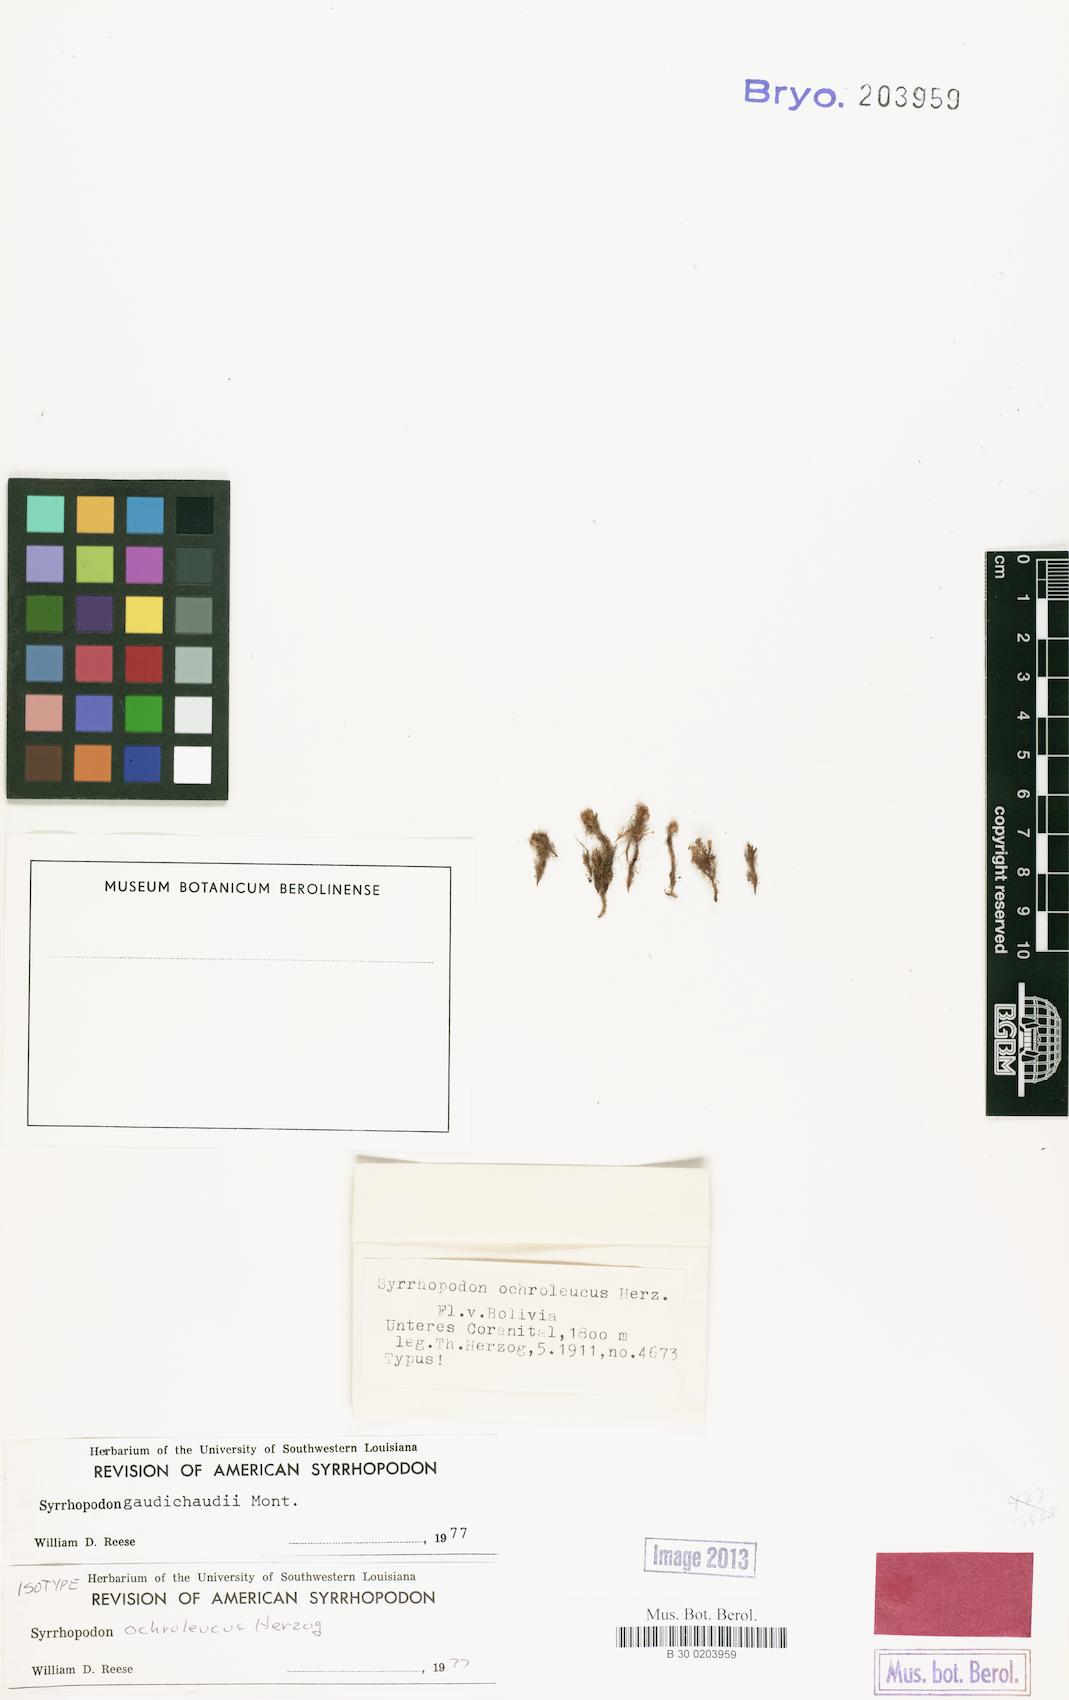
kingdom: Plantae
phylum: Bryophyta
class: Bryopsida
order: Dicranales
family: Calymperaceae
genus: Syrrhopodon
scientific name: Syrrhopodon gaudichaudii
